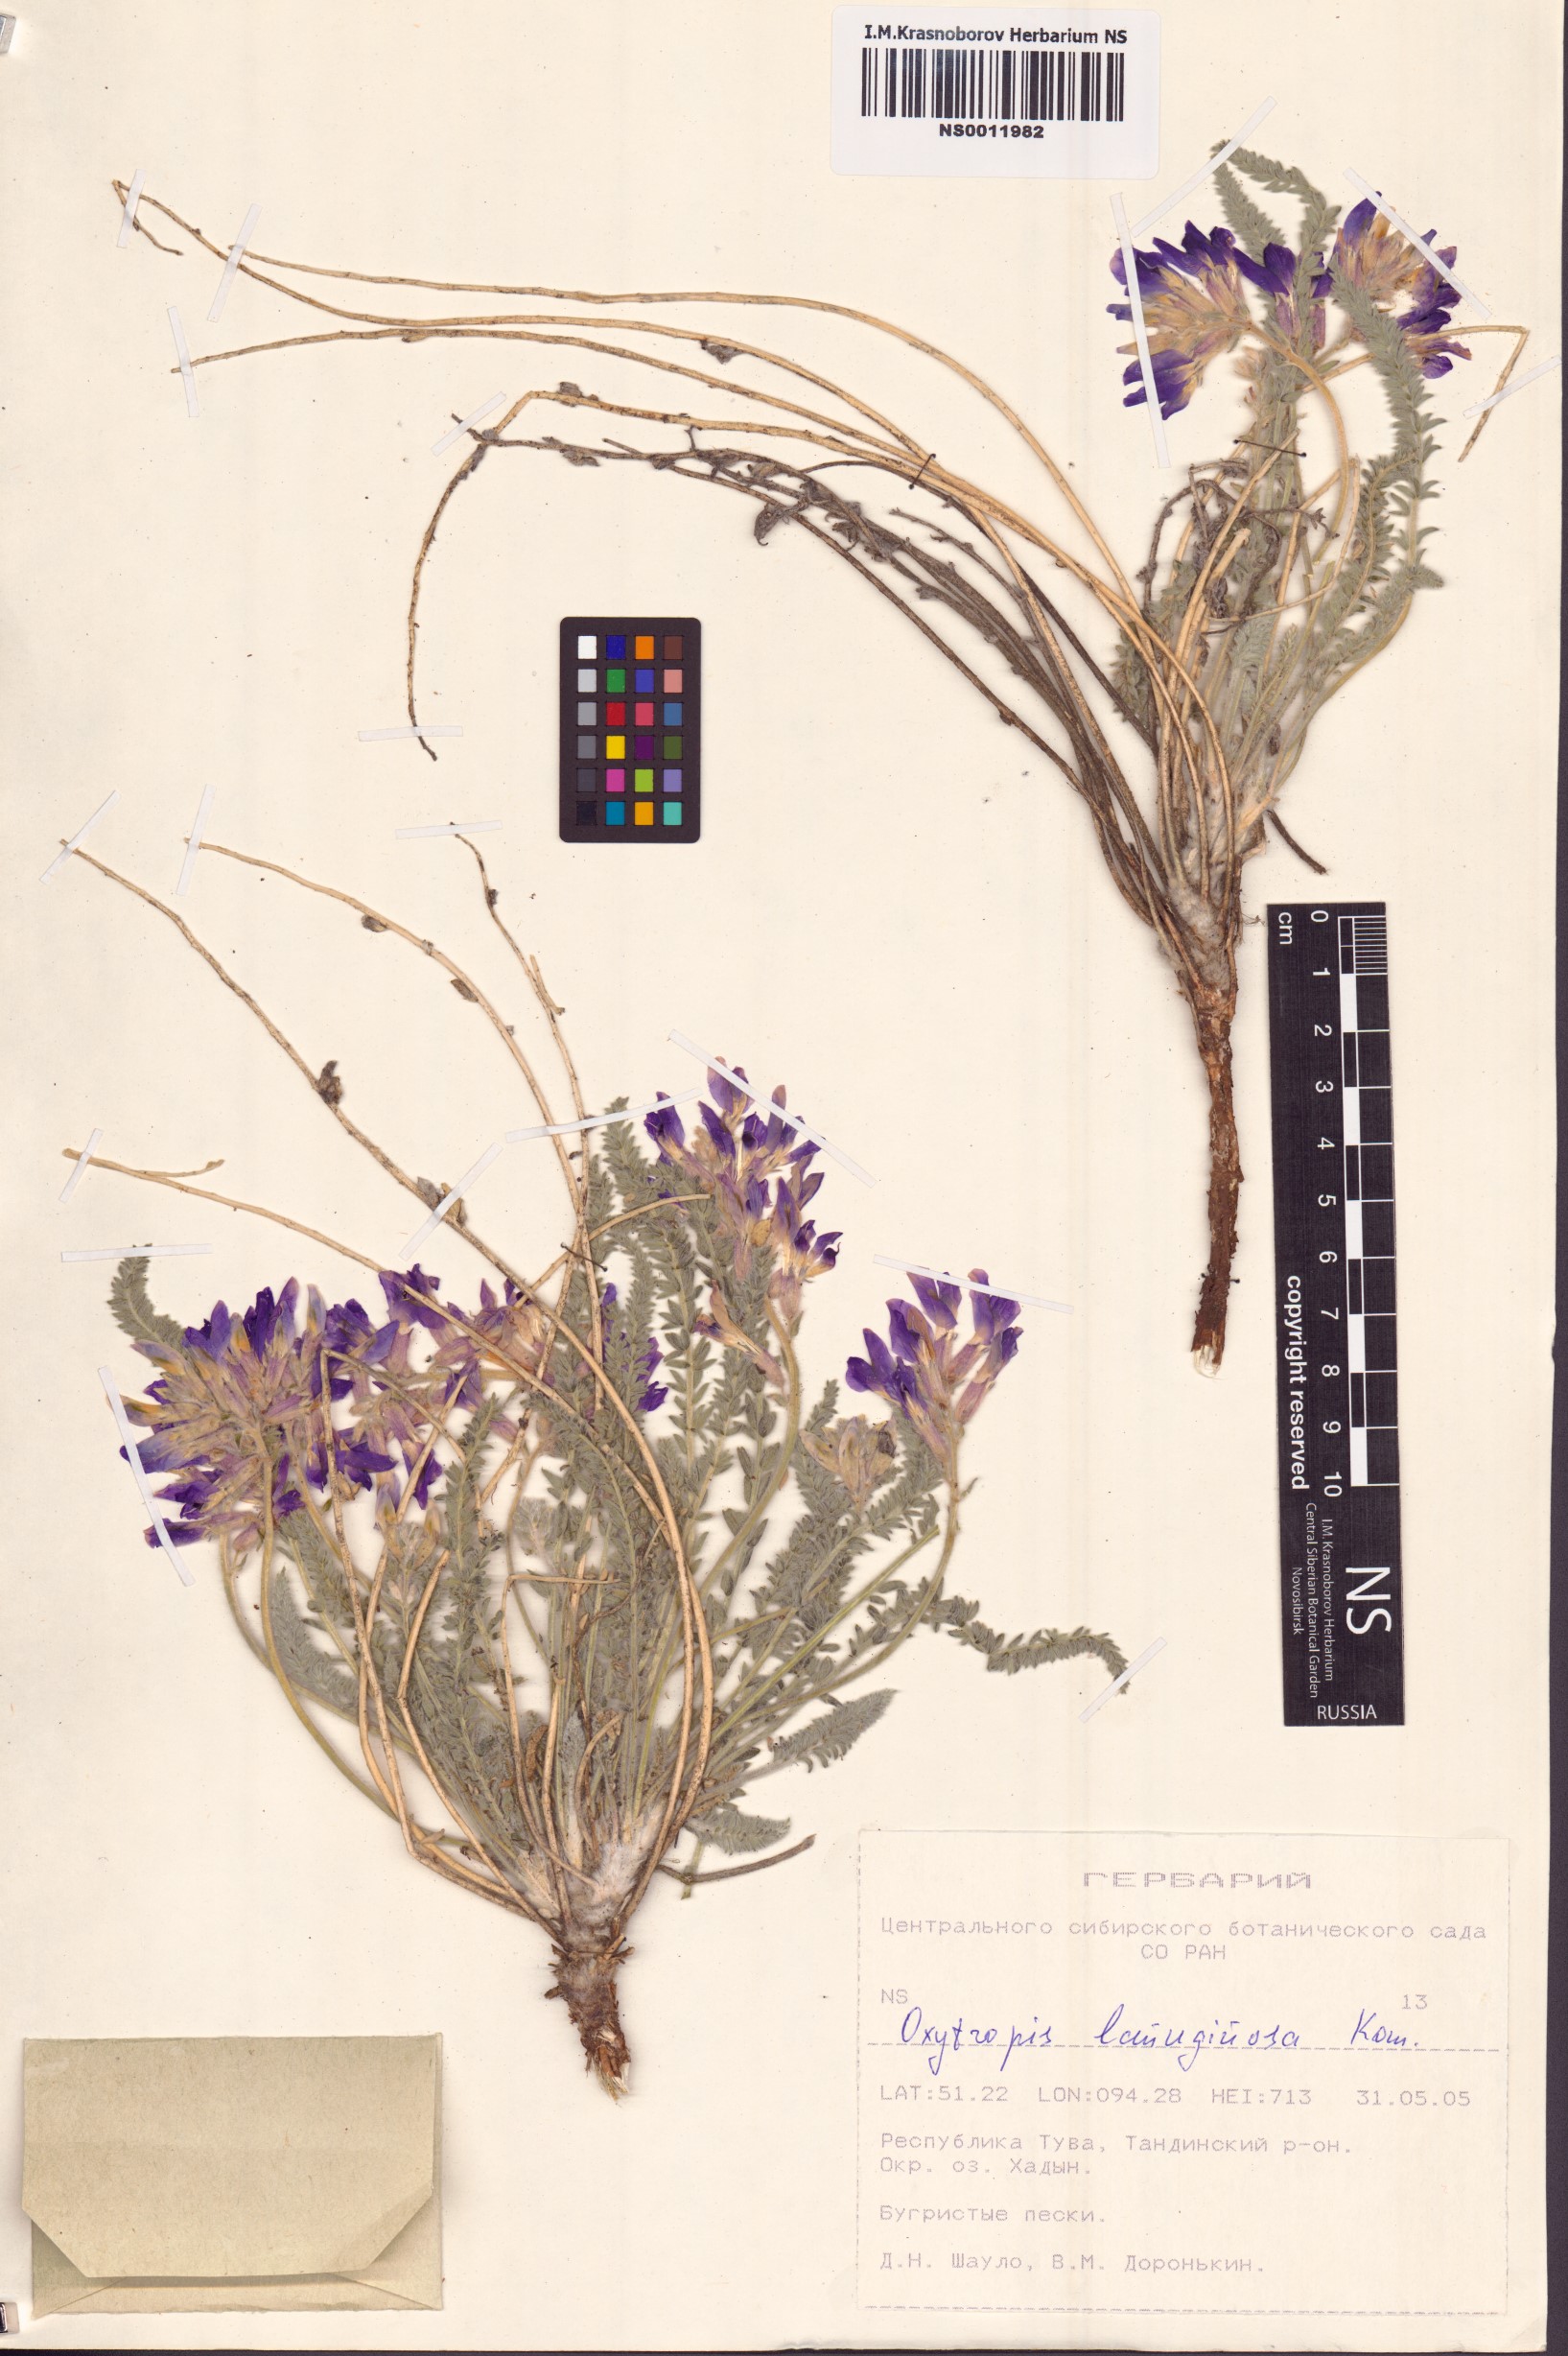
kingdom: Plantae
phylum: Tracheophyta
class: Magnoliopsida
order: Fabales
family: Fabaceae
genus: Oxytropis
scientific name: Oxytropis lanuginosa
